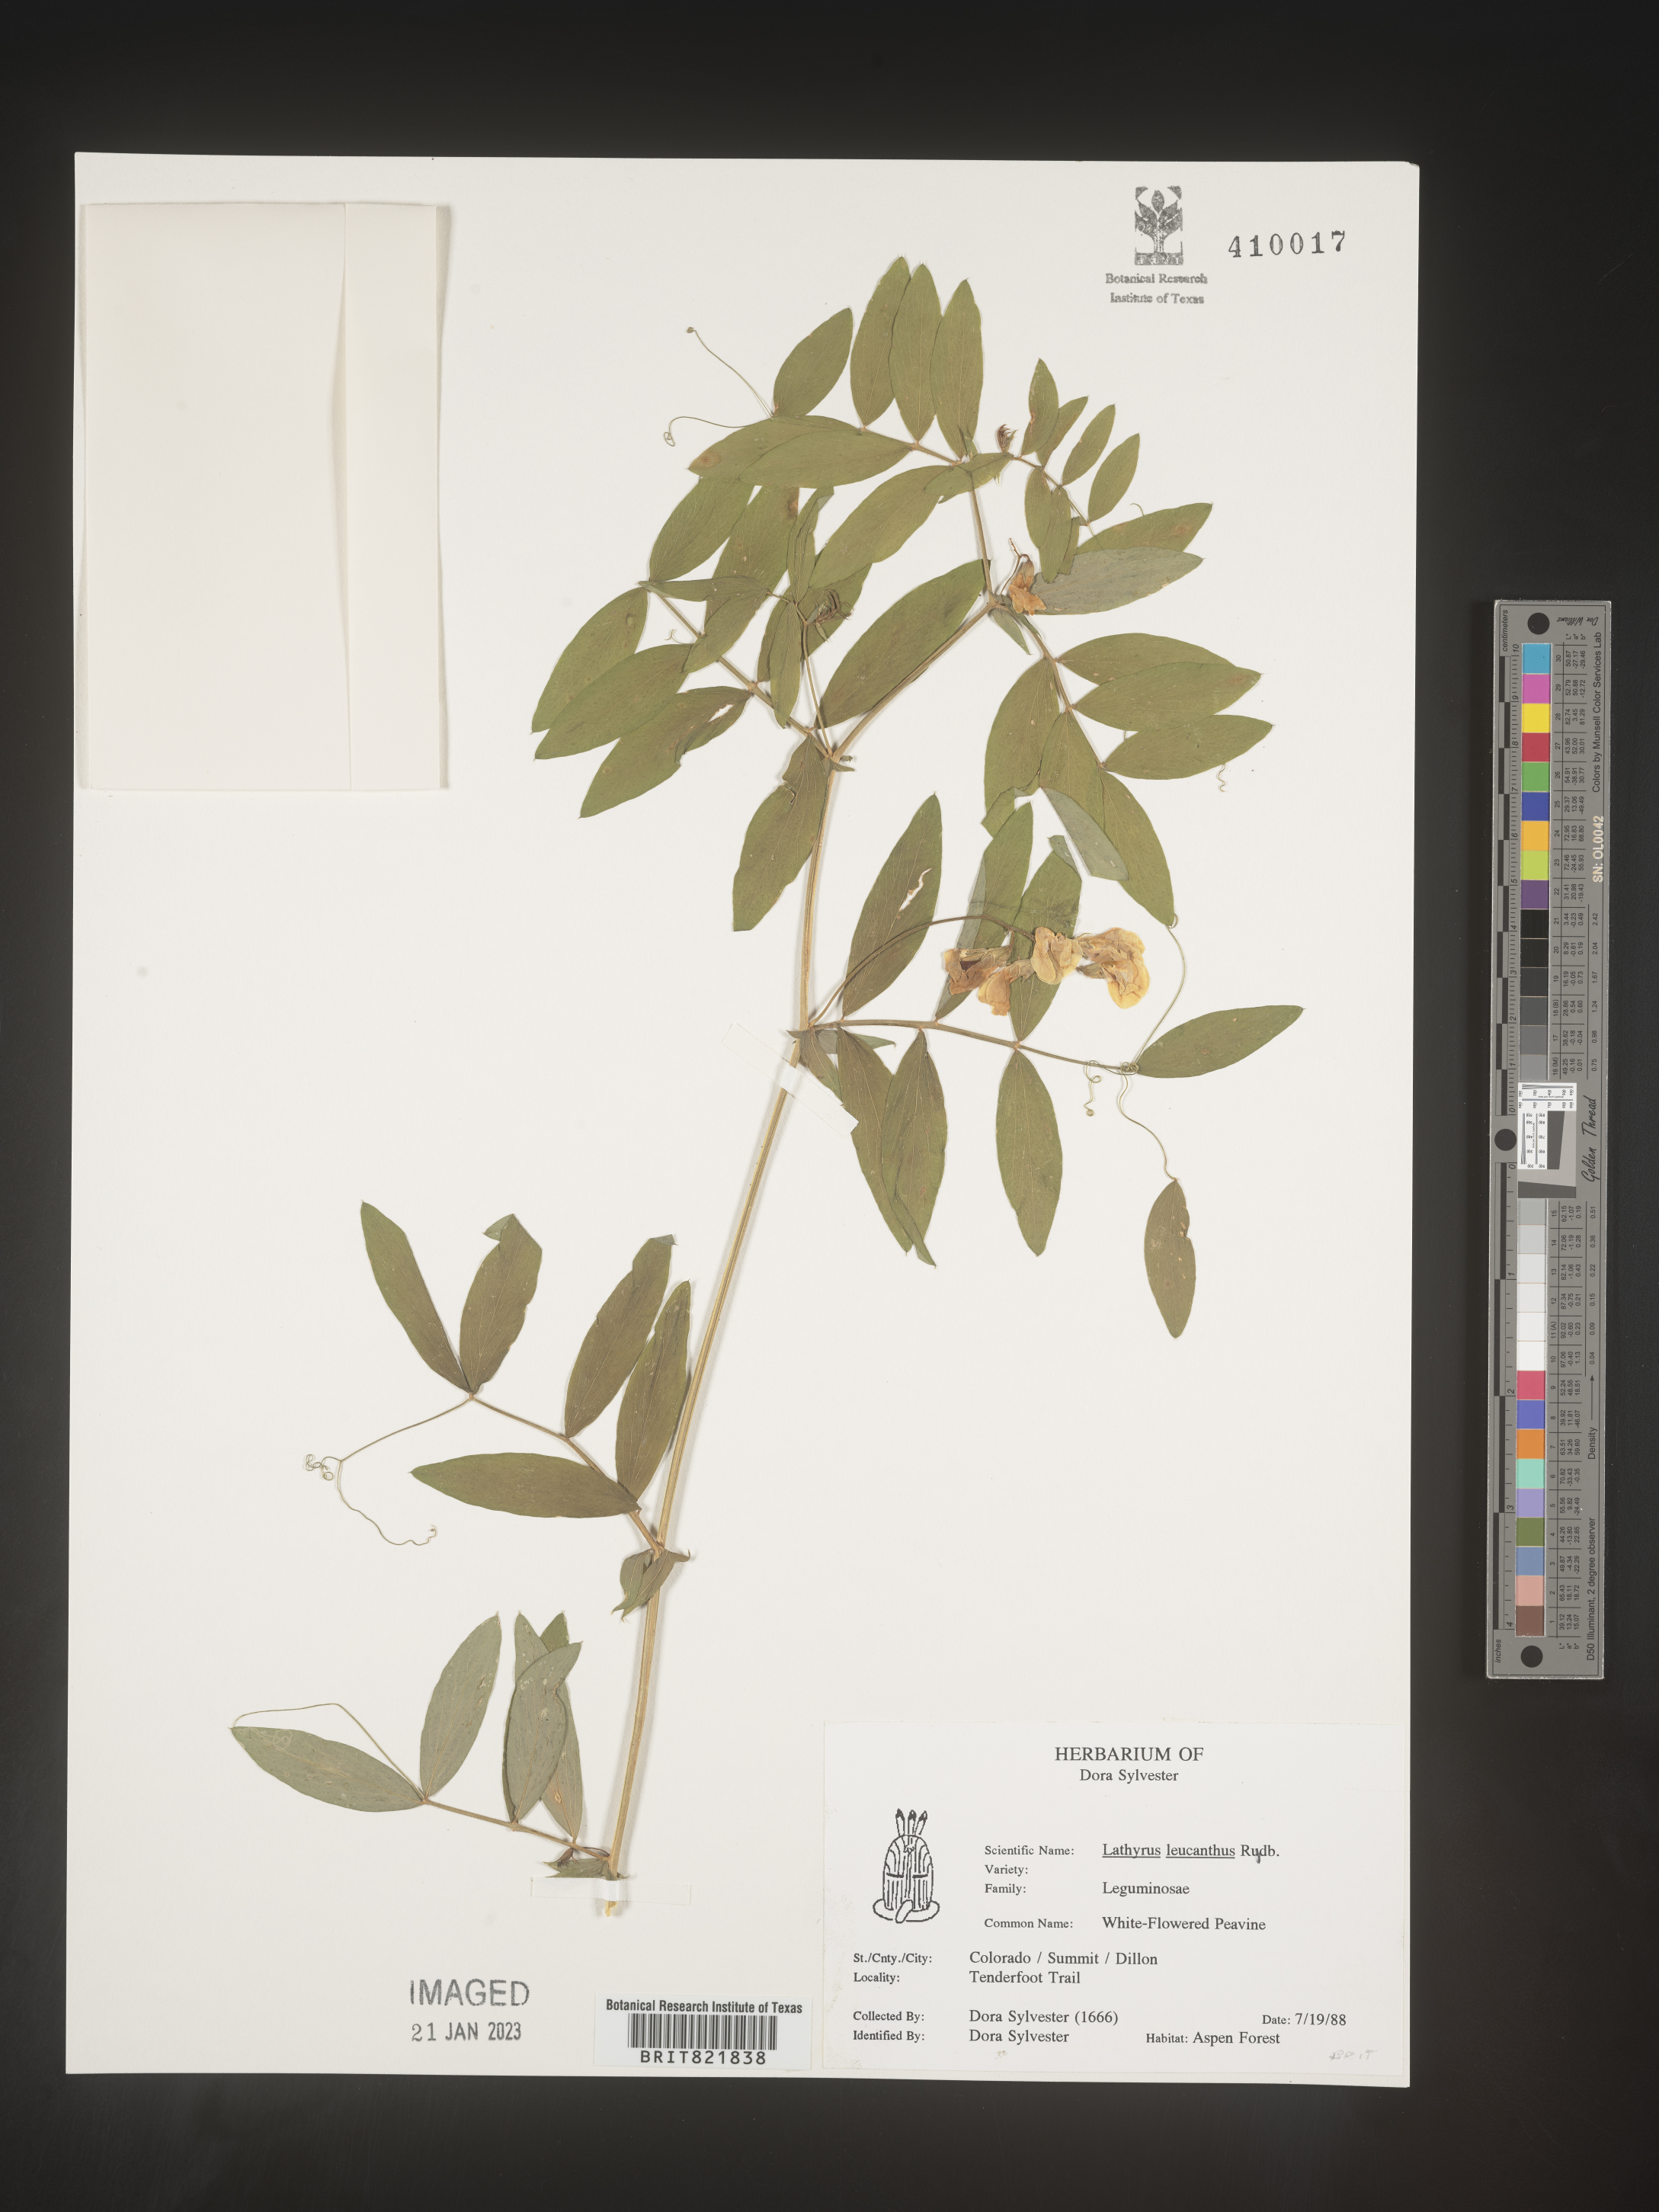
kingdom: Plantae
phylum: Tracheophyta
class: Magnoliopsida
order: Fabales
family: Fabaceae
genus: Lathyrus
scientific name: Lathyrus
